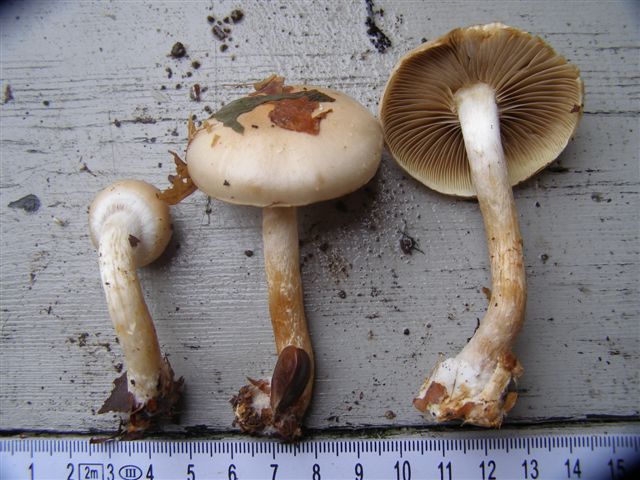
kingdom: Fungi
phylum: Basidiomycota
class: Agaricomycetes
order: Agaricales
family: Strophariaceae
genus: Pholiota
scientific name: Pholiota lenta
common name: løv-skælhat
